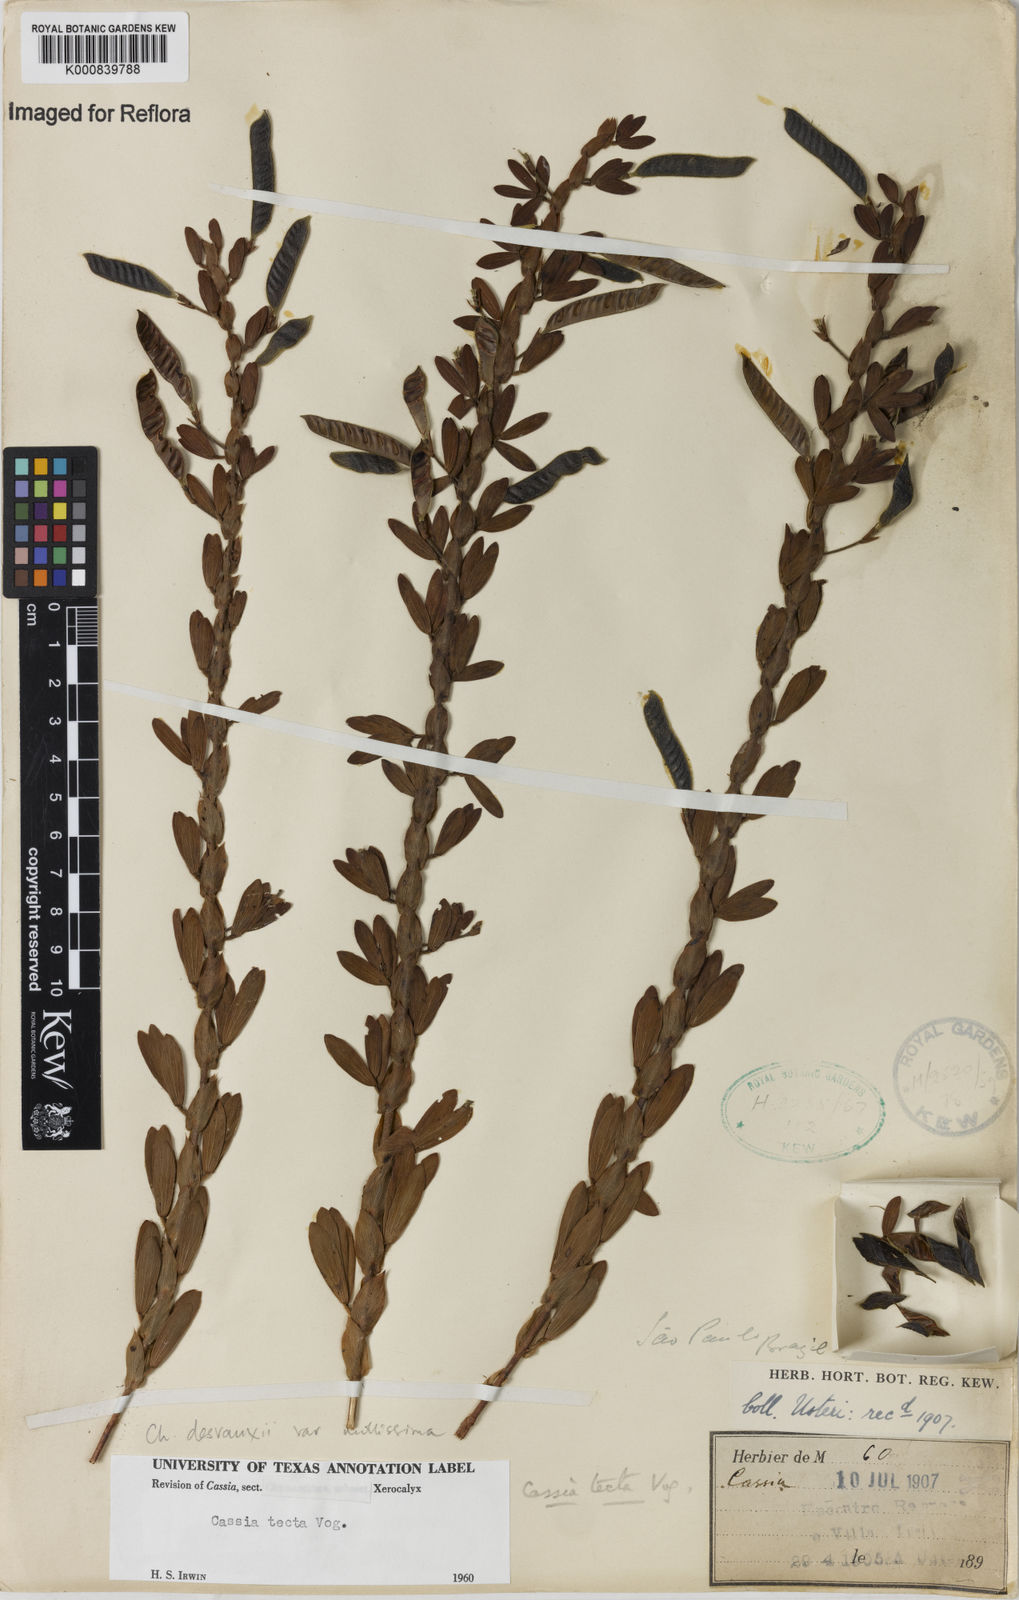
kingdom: Plantae
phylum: Tracheophyta
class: Magnoliopsida
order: Fabales
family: Fabaceae
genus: Chamaecrista
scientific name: Chamaecrista desvauxii
